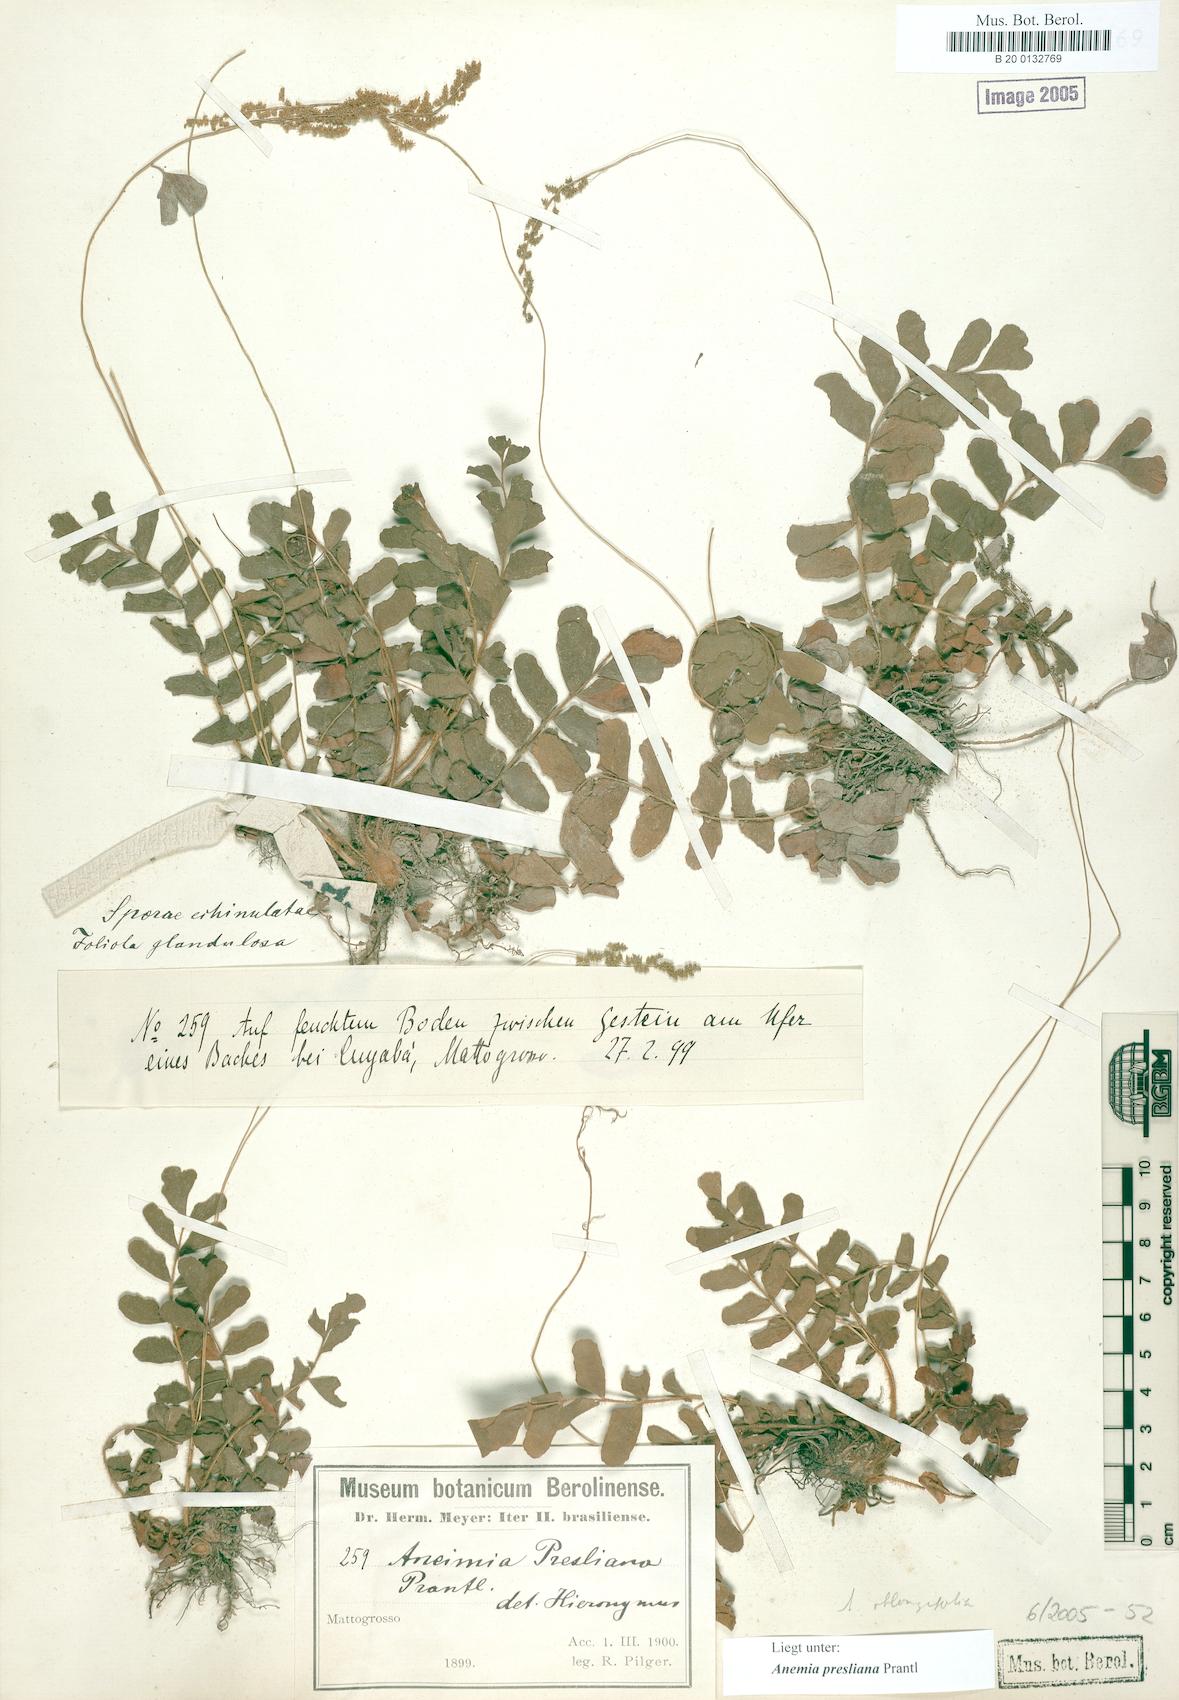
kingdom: Plantae
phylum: Tracheophyta
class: Polypodiopsida
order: Schizaeales
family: Anemiaceae
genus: Anemia
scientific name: Anemia presliana
